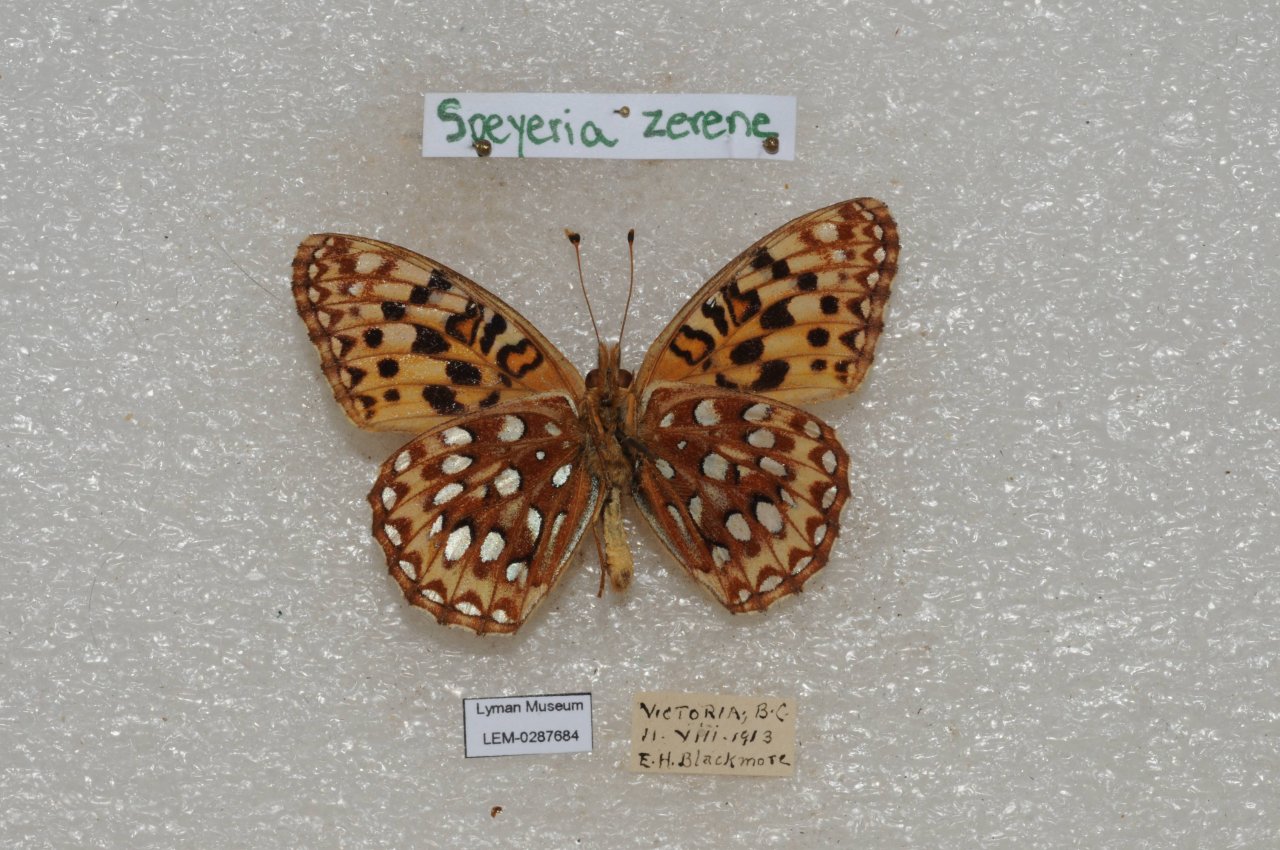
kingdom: Animalia
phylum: Arthropoda
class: Insecta
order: Lepidoptera
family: Nymphalidae
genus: Speyeria
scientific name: Speyeria zerene
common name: Zerene Fritillary
